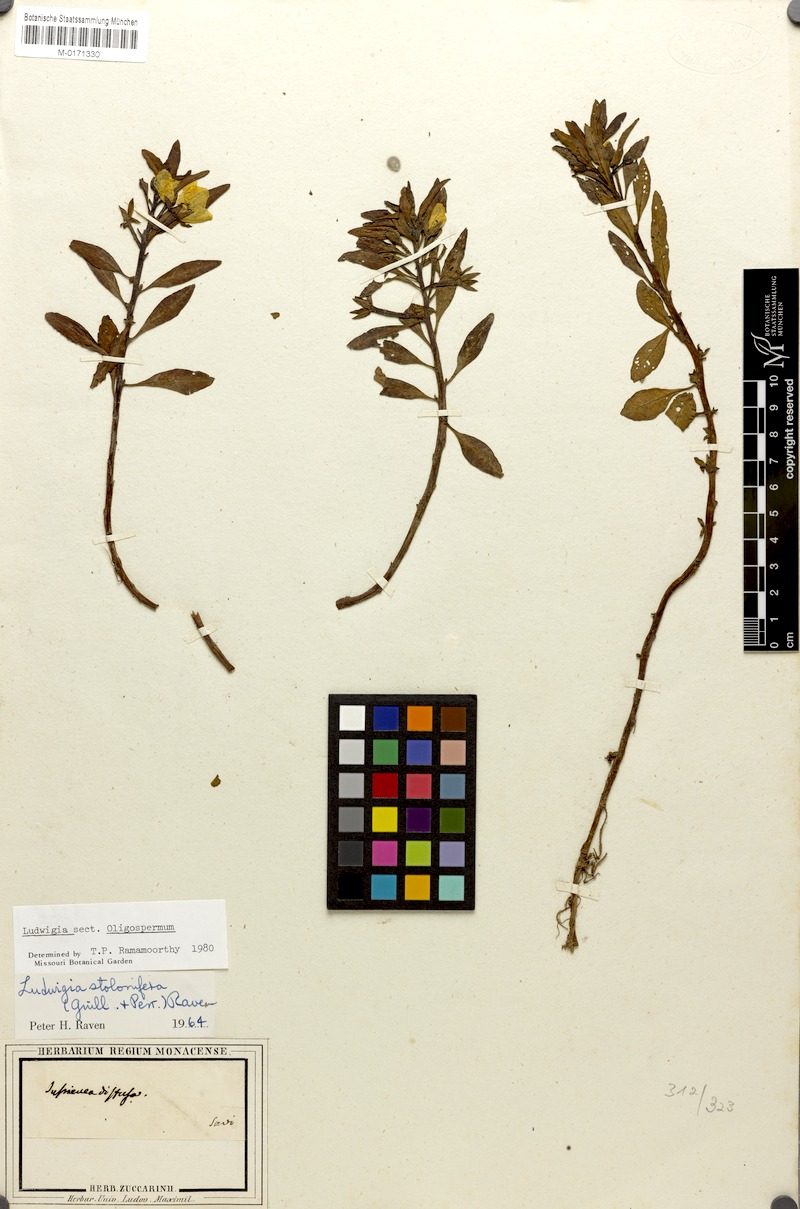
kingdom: Plantae
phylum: Tracheophyta
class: Magnoliopsida
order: Myrtales
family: Onagraceae
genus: Ludwigia
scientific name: Ludwigia adscendens
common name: Creeping water primrose
